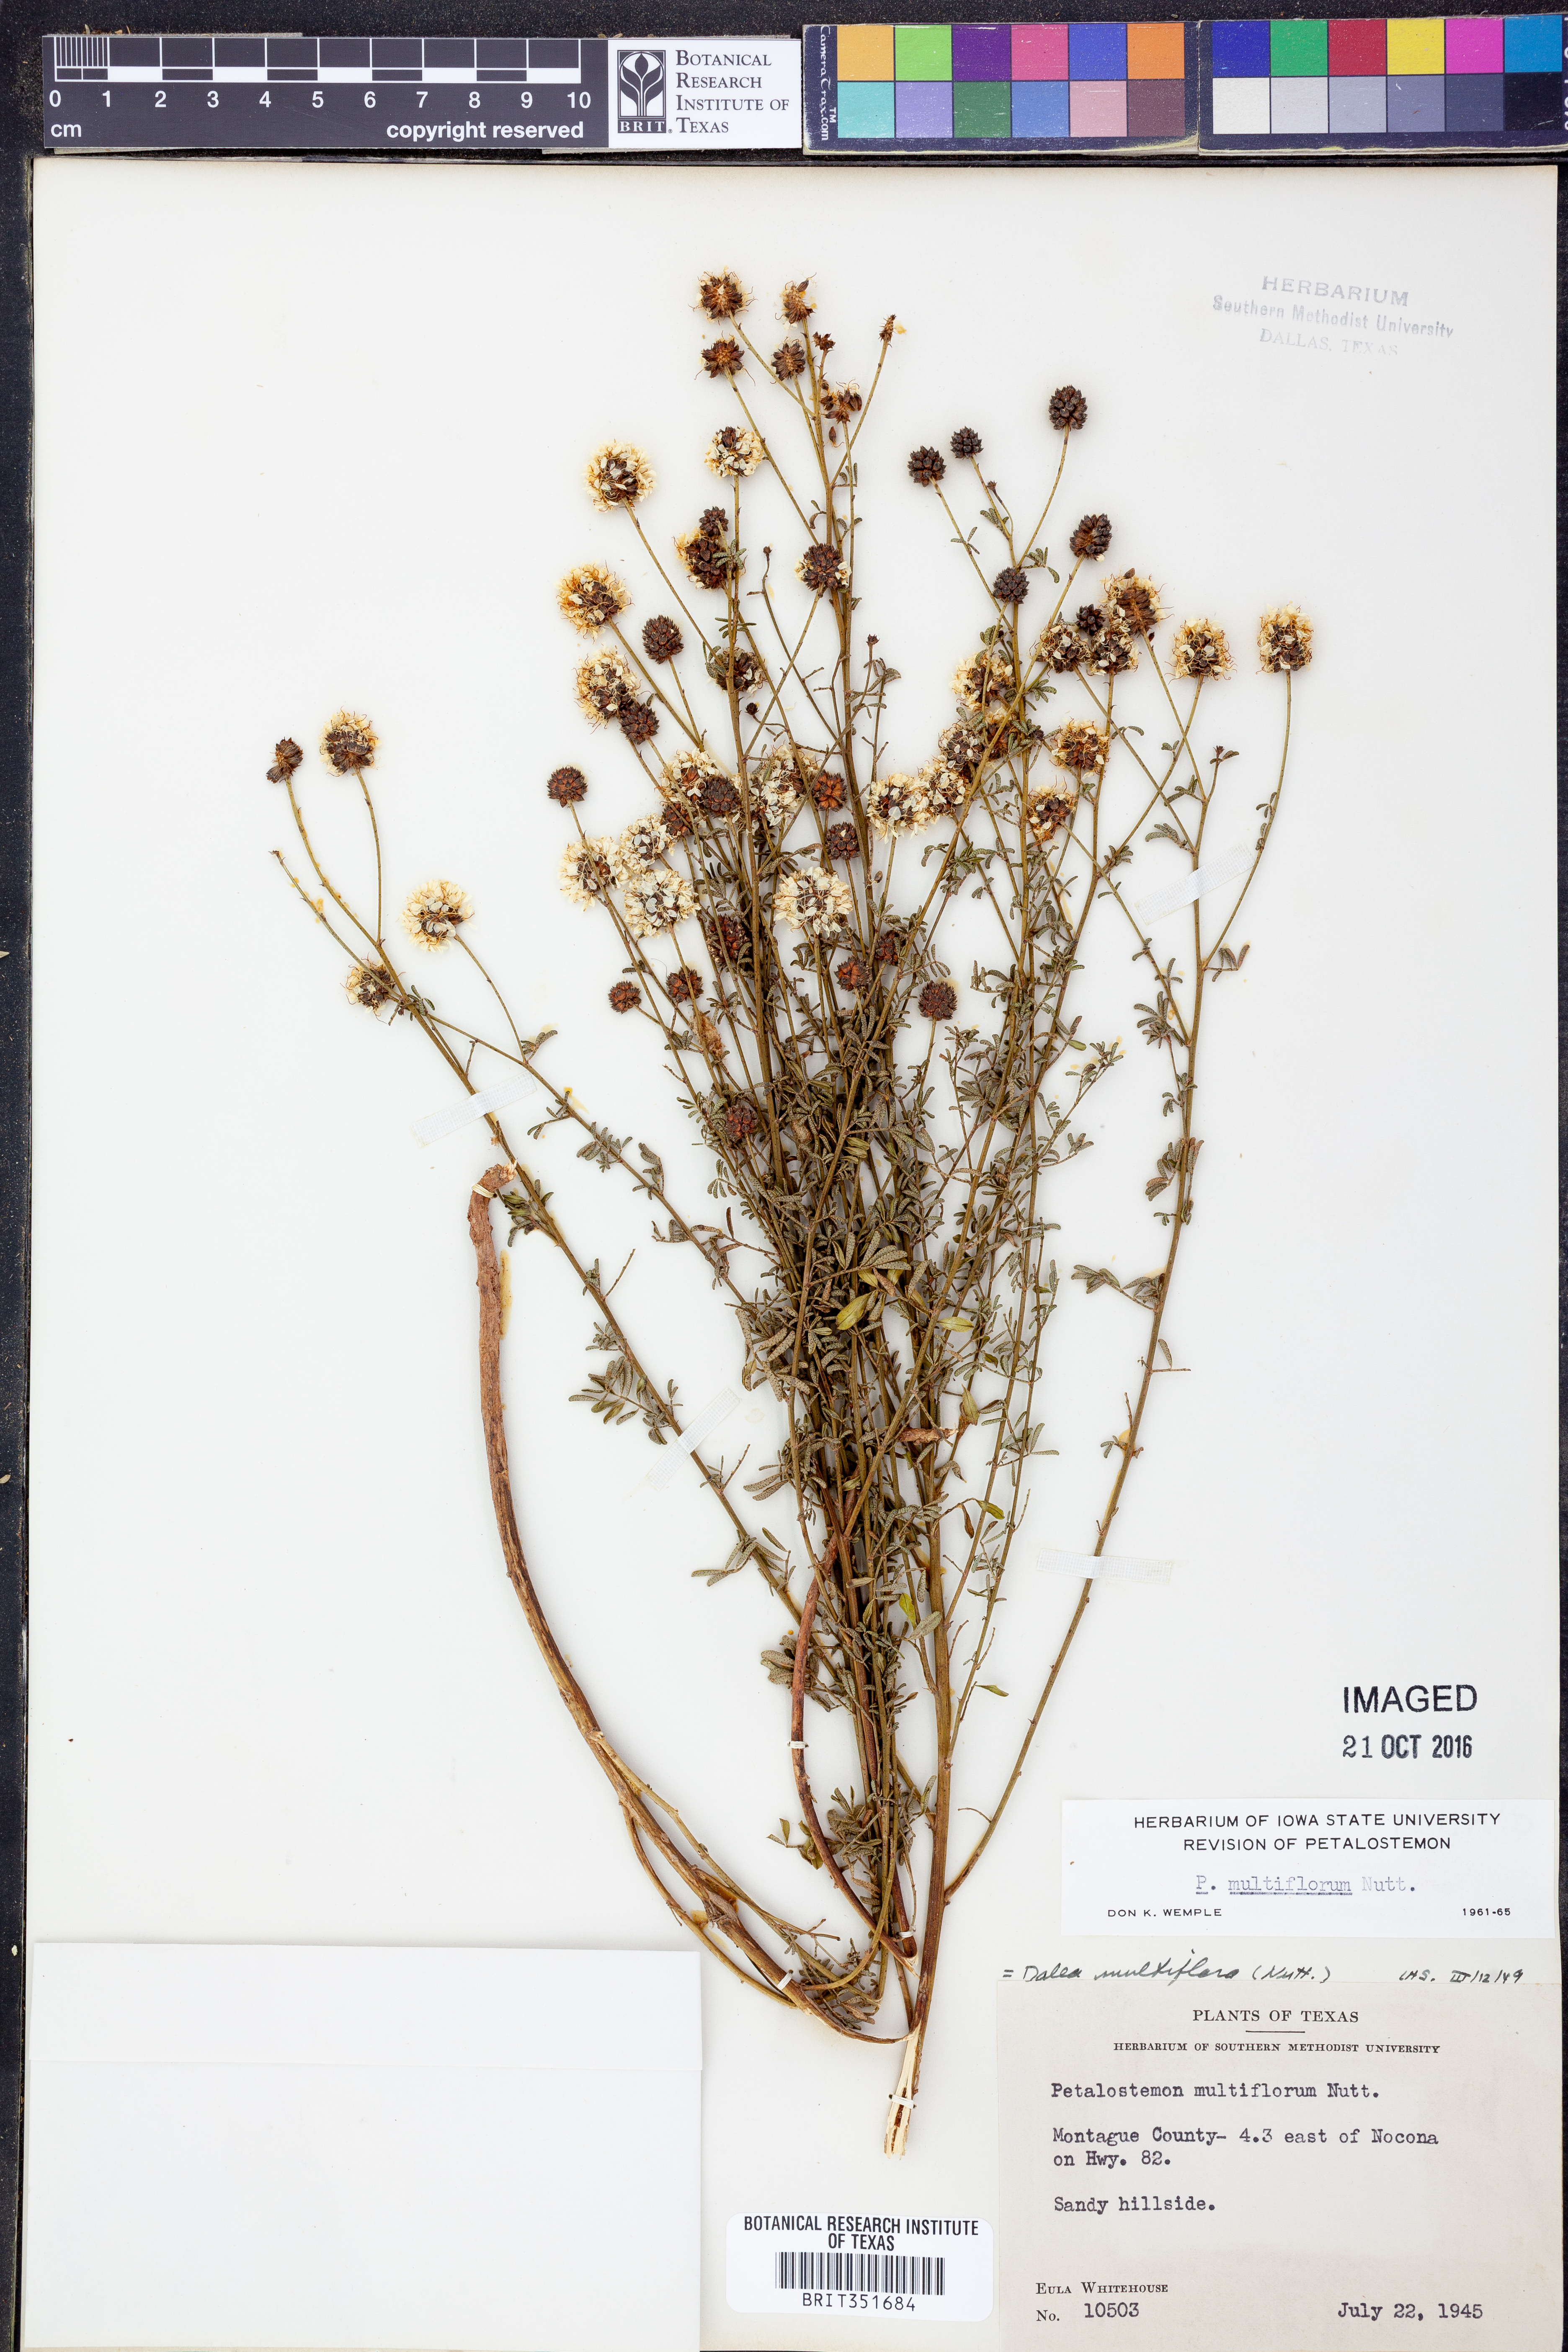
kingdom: Plantae
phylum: Tracheophyta
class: Magnoliopsida
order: Fabales
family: Fabaceae
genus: Dalea
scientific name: Dalea multiflora
